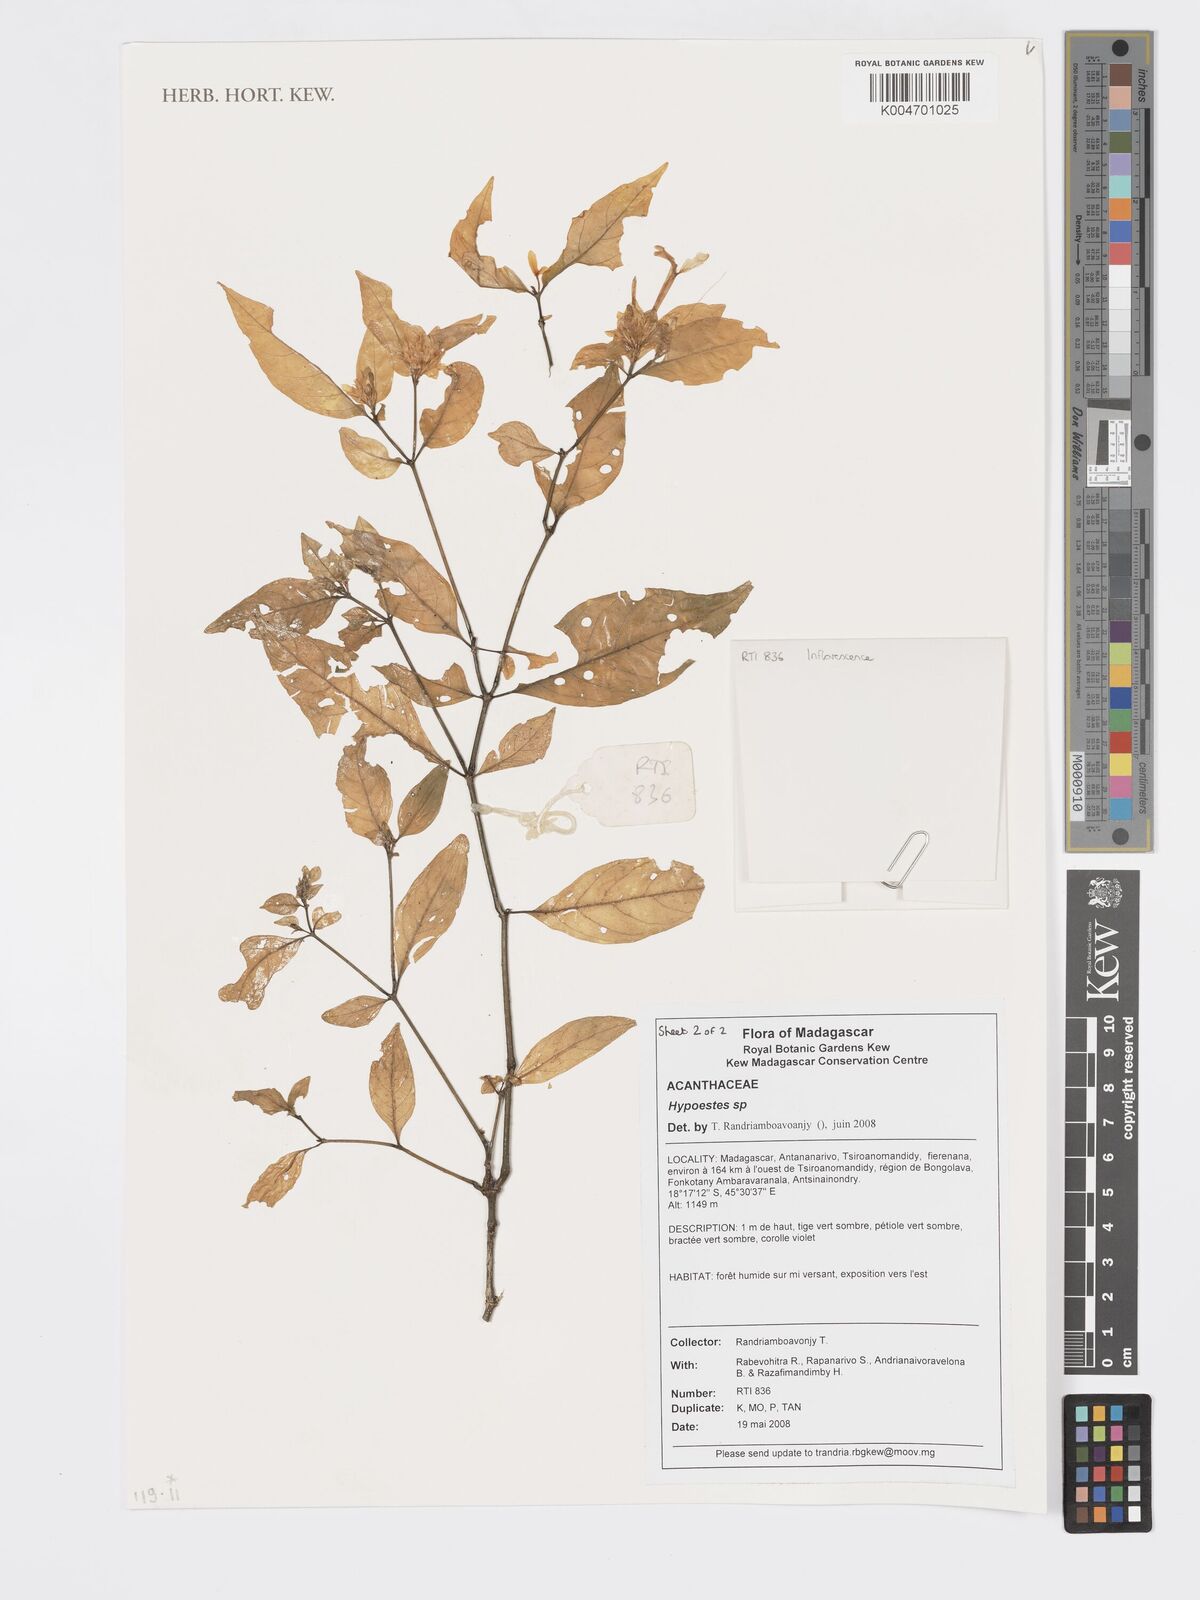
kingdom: Plantae
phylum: Tracheophyta
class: Magnoliopsida
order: Lamiales
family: Acanthaceae
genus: Hypoestes
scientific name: Hypoestes
